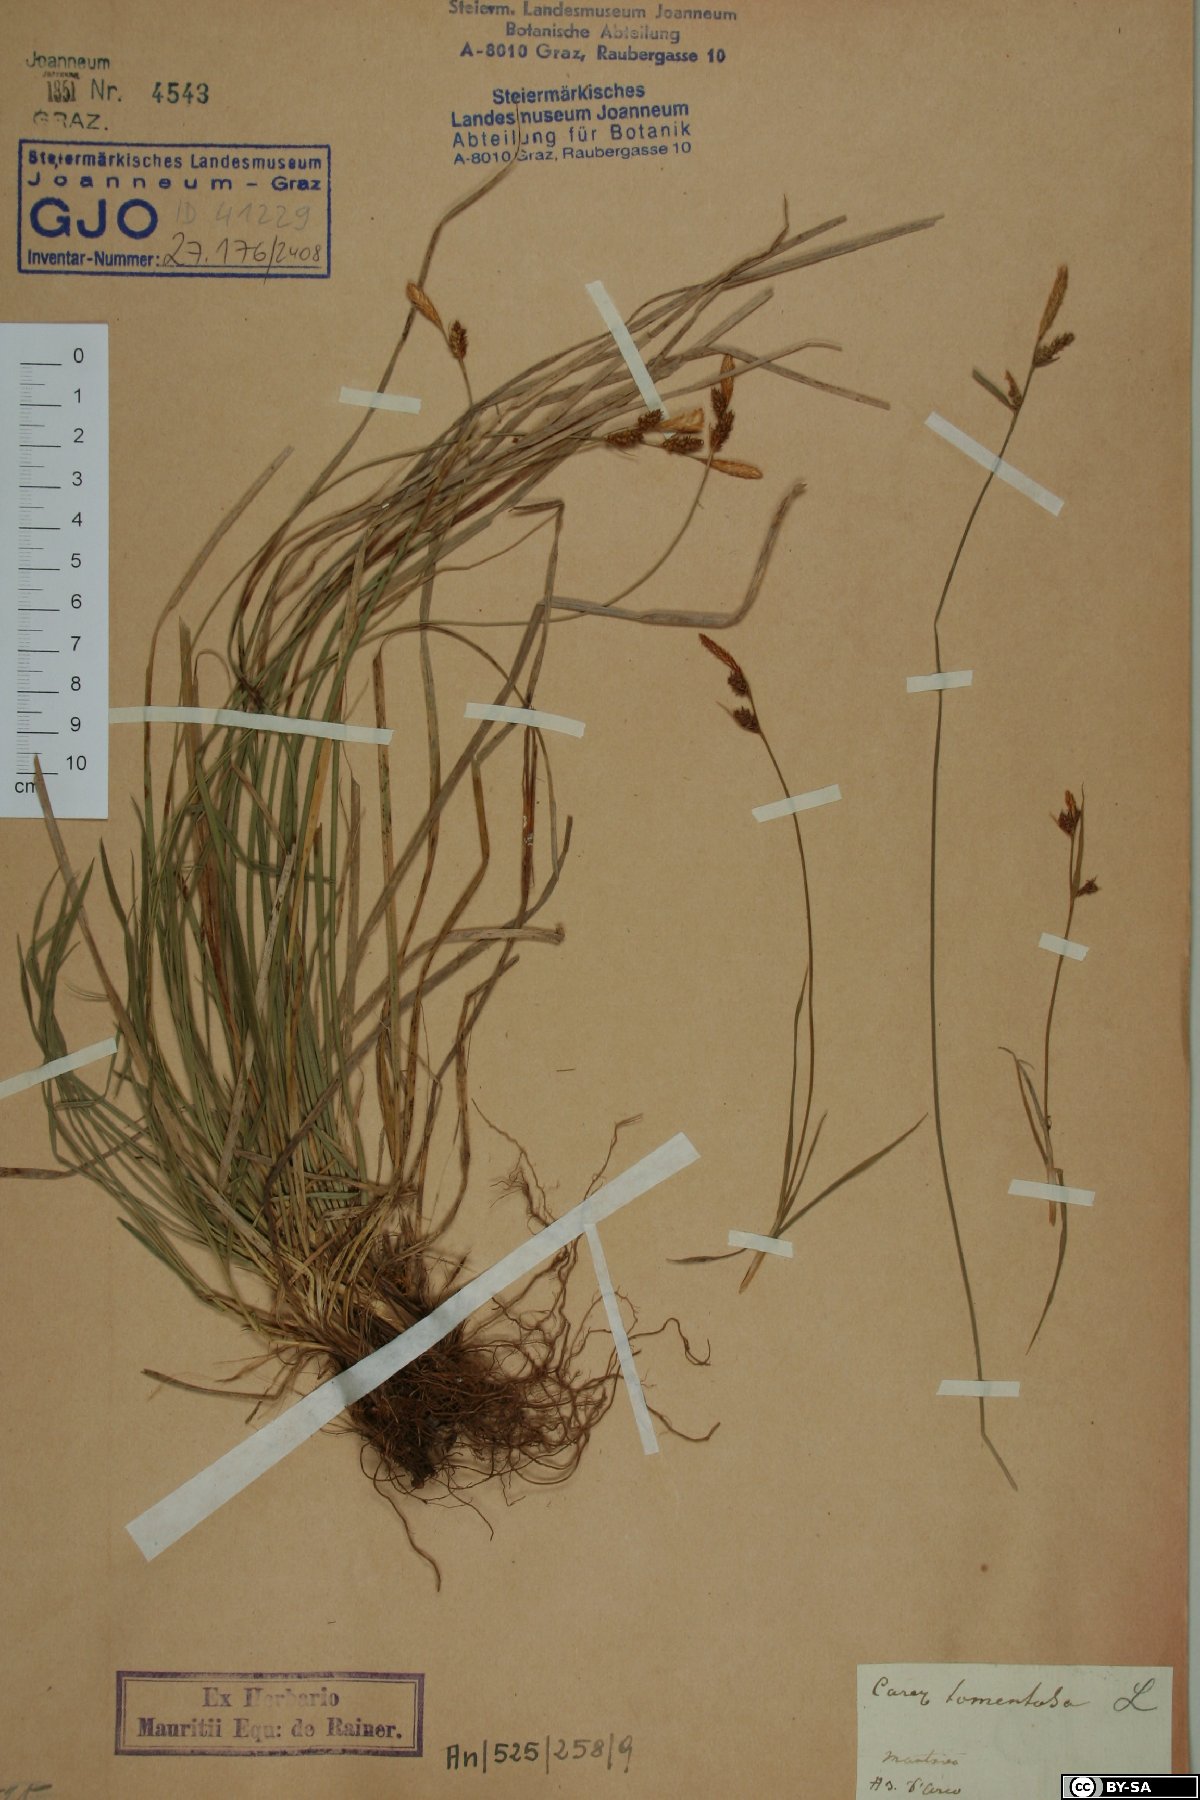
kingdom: Plantae
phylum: Tracheophyta
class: Liliopsida
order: Poales
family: Cyperaceae
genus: Carex
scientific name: Carex tomentosa
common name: Downy-fruited sedge
